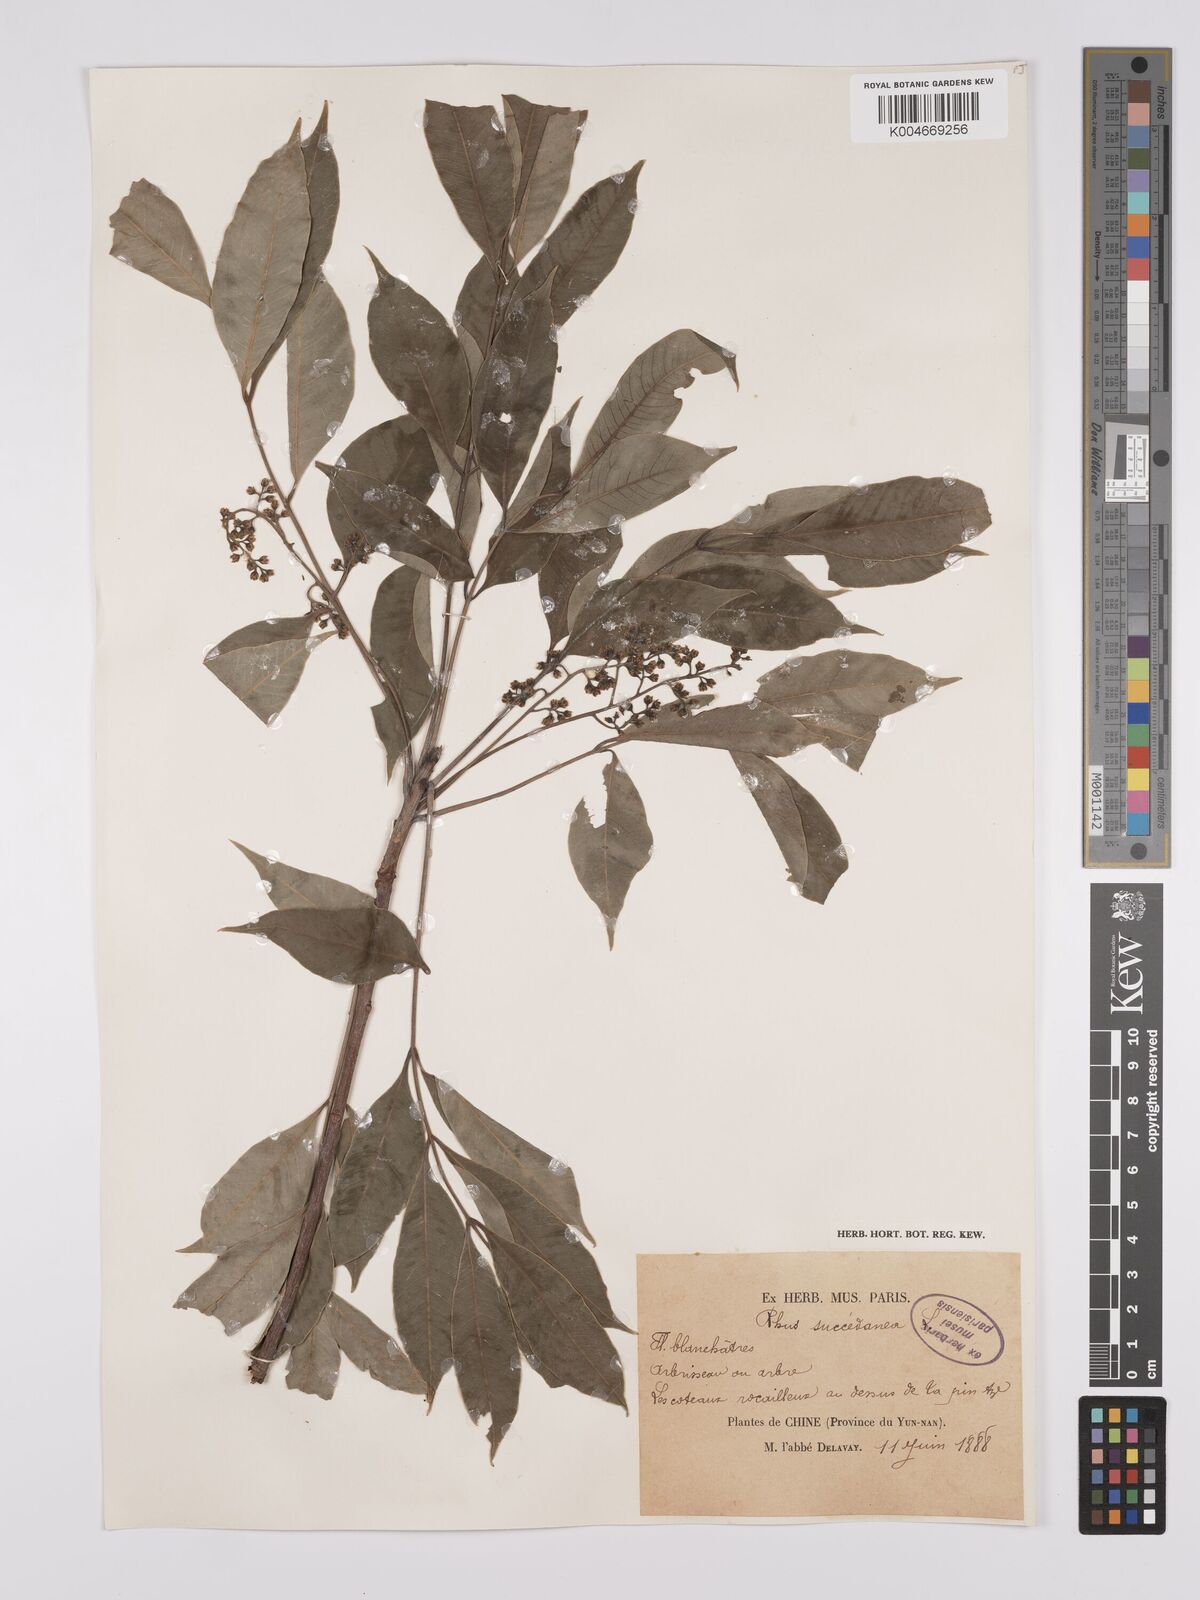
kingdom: Plantae
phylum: Tracheophyta
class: Magnoliopsida
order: Sapindales
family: Anacardiaceae
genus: Toxicodendron
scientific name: Toxicodendron succedaneum
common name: Wax tree
